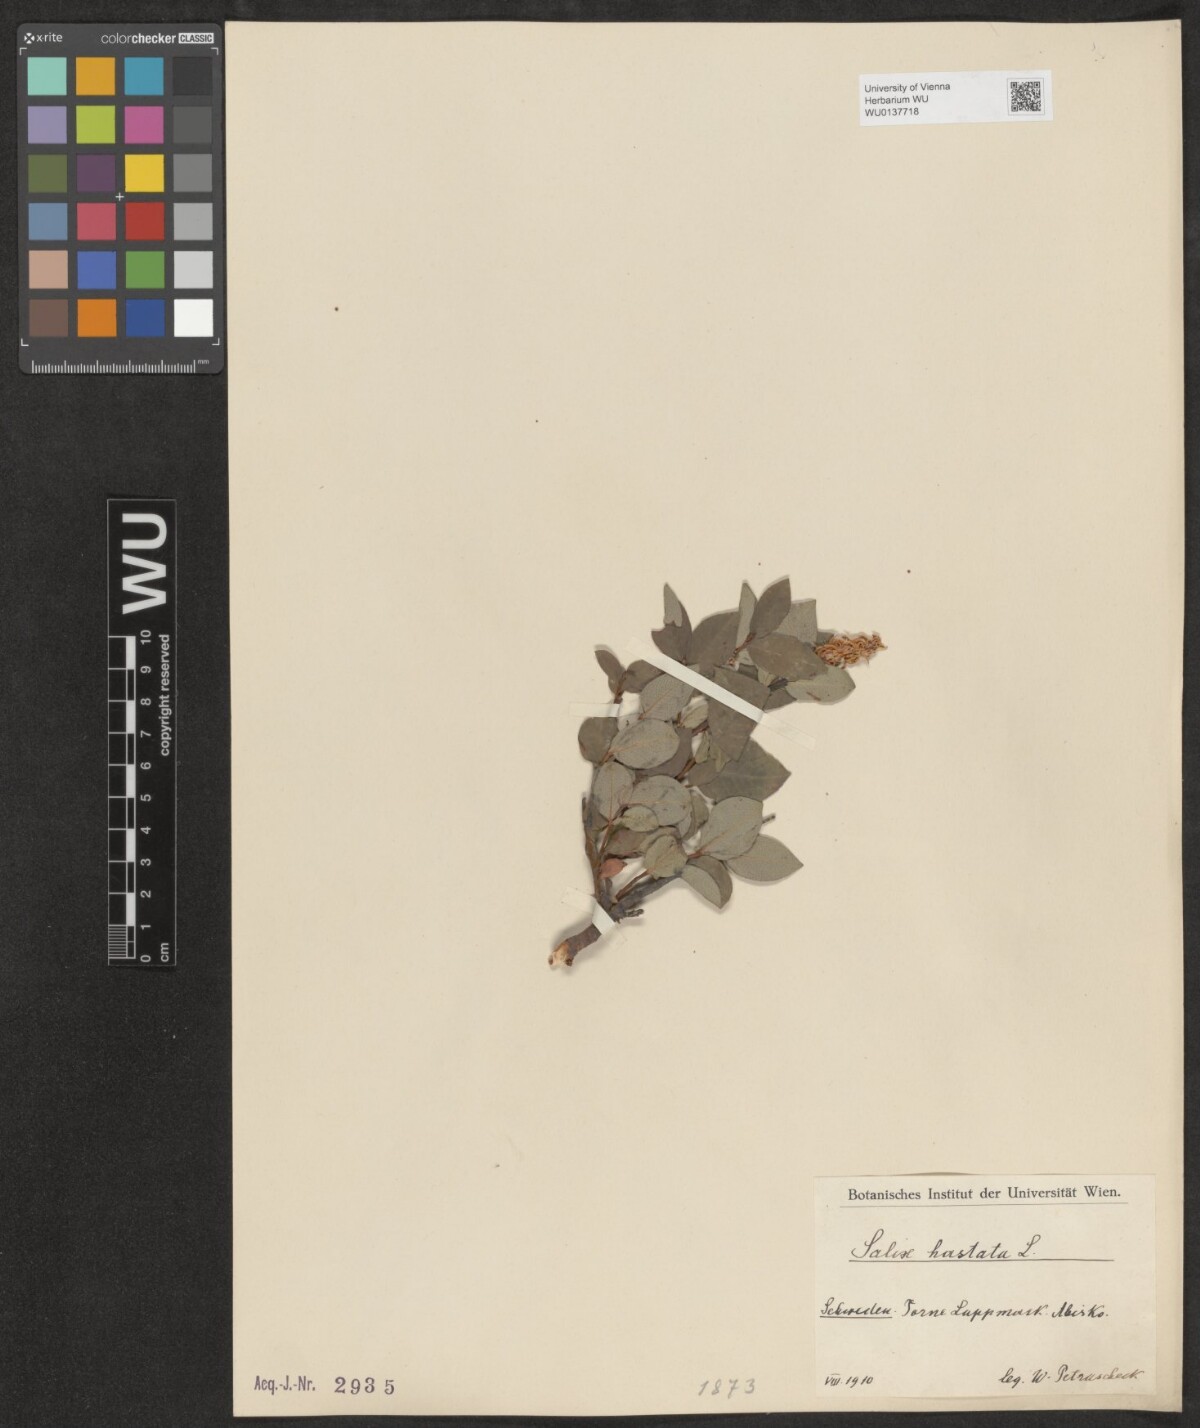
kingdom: Plantae
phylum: Tracheophyta
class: Magnoliopsida
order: Malpighiales
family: Salicaceae
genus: Salix
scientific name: Salix hastata
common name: Halberd willow
